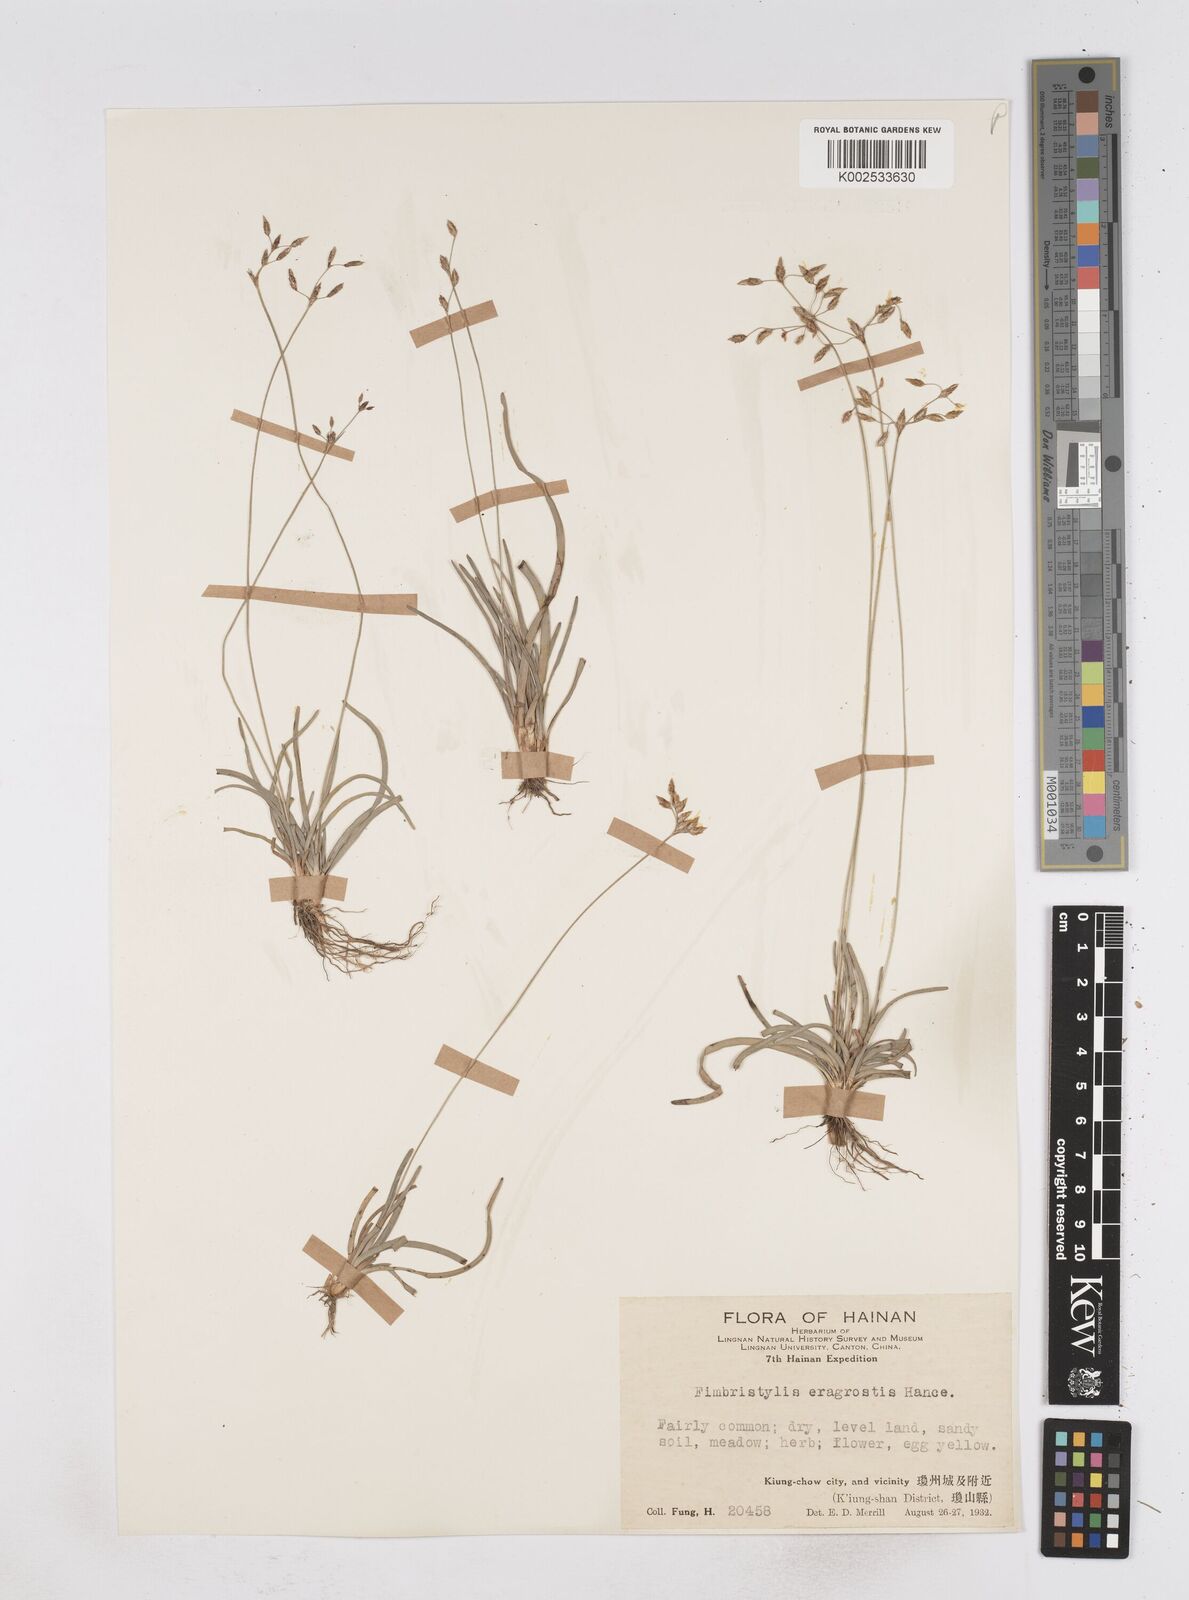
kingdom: Plantae
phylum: Tracheophyta
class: Liliopsida
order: Poales
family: Cyperaceae
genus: Fimbristylis
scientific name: Fimbristylis eragrostis
